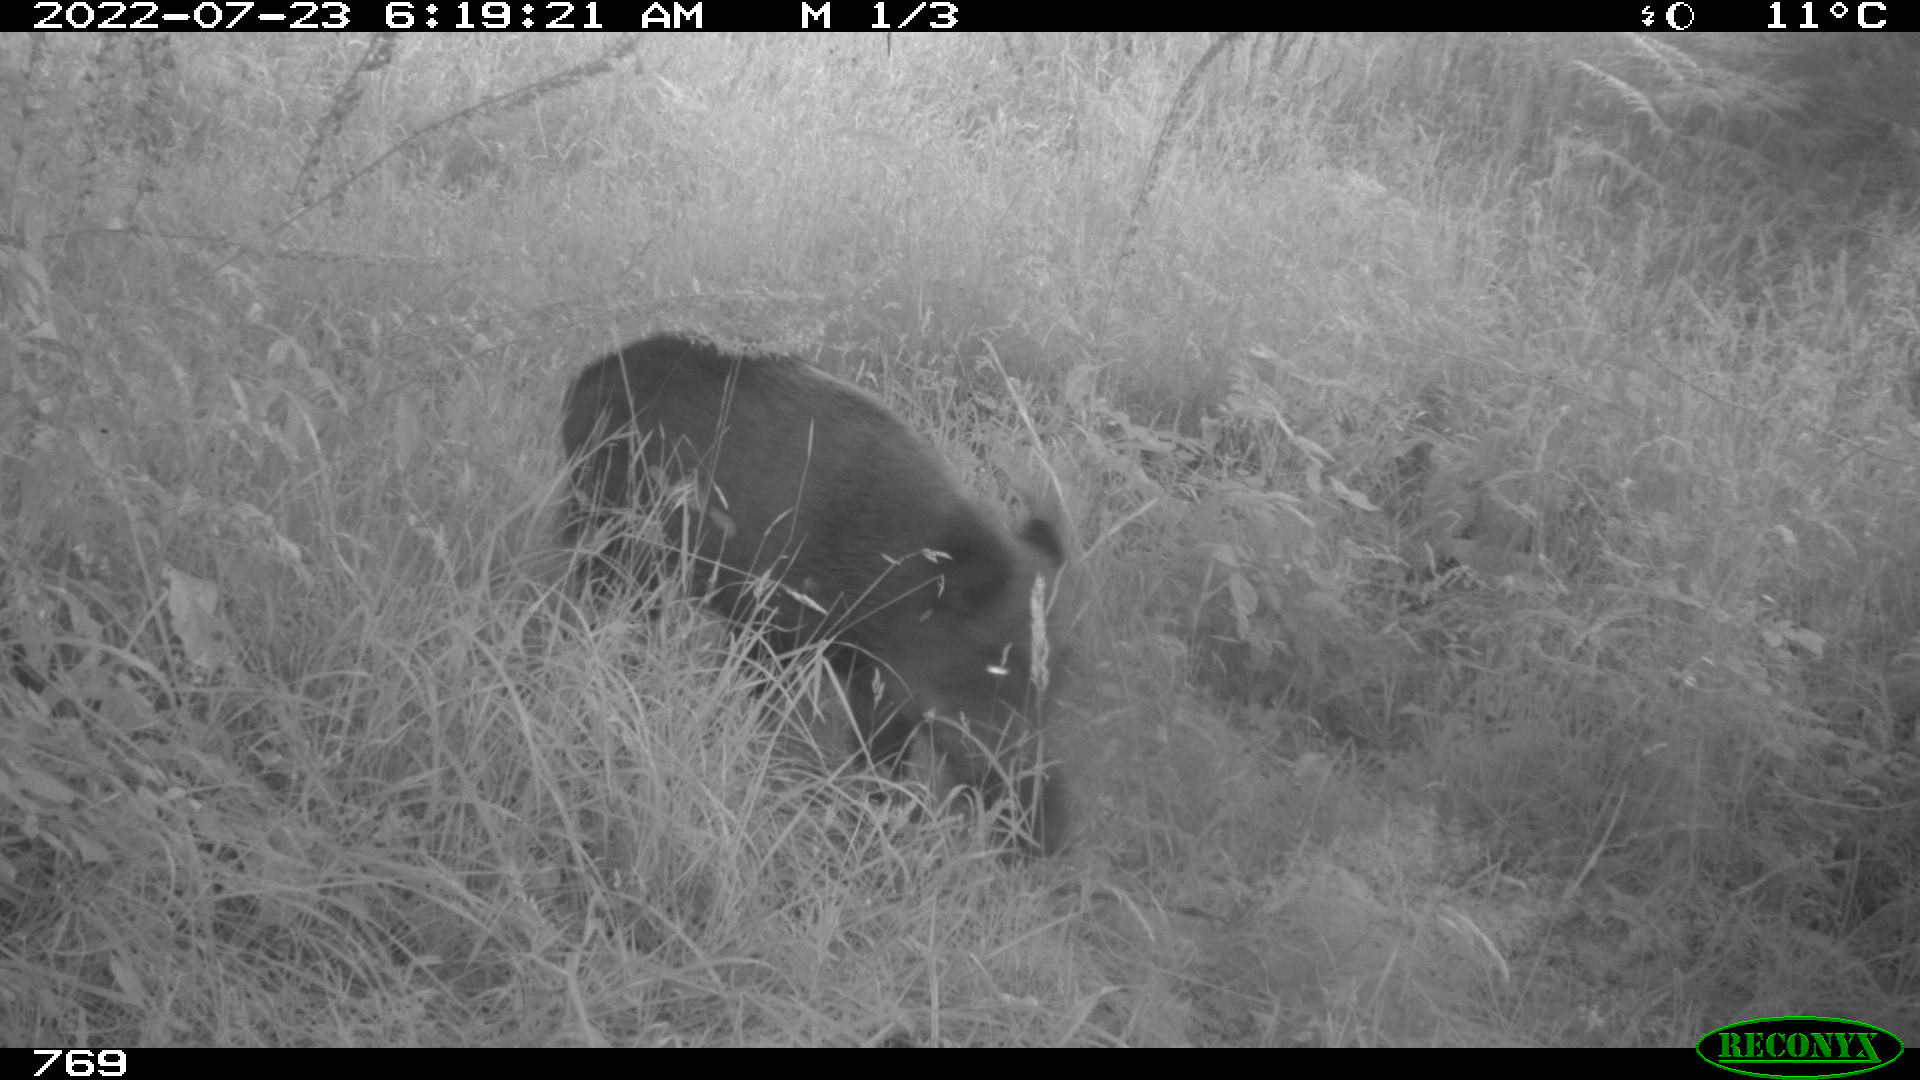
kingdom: Animalia
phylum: Chordata
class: Mammalia
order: Artiodactyla
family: Suidae
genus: Sus
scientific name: Sus scrofa
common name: Wild boar
